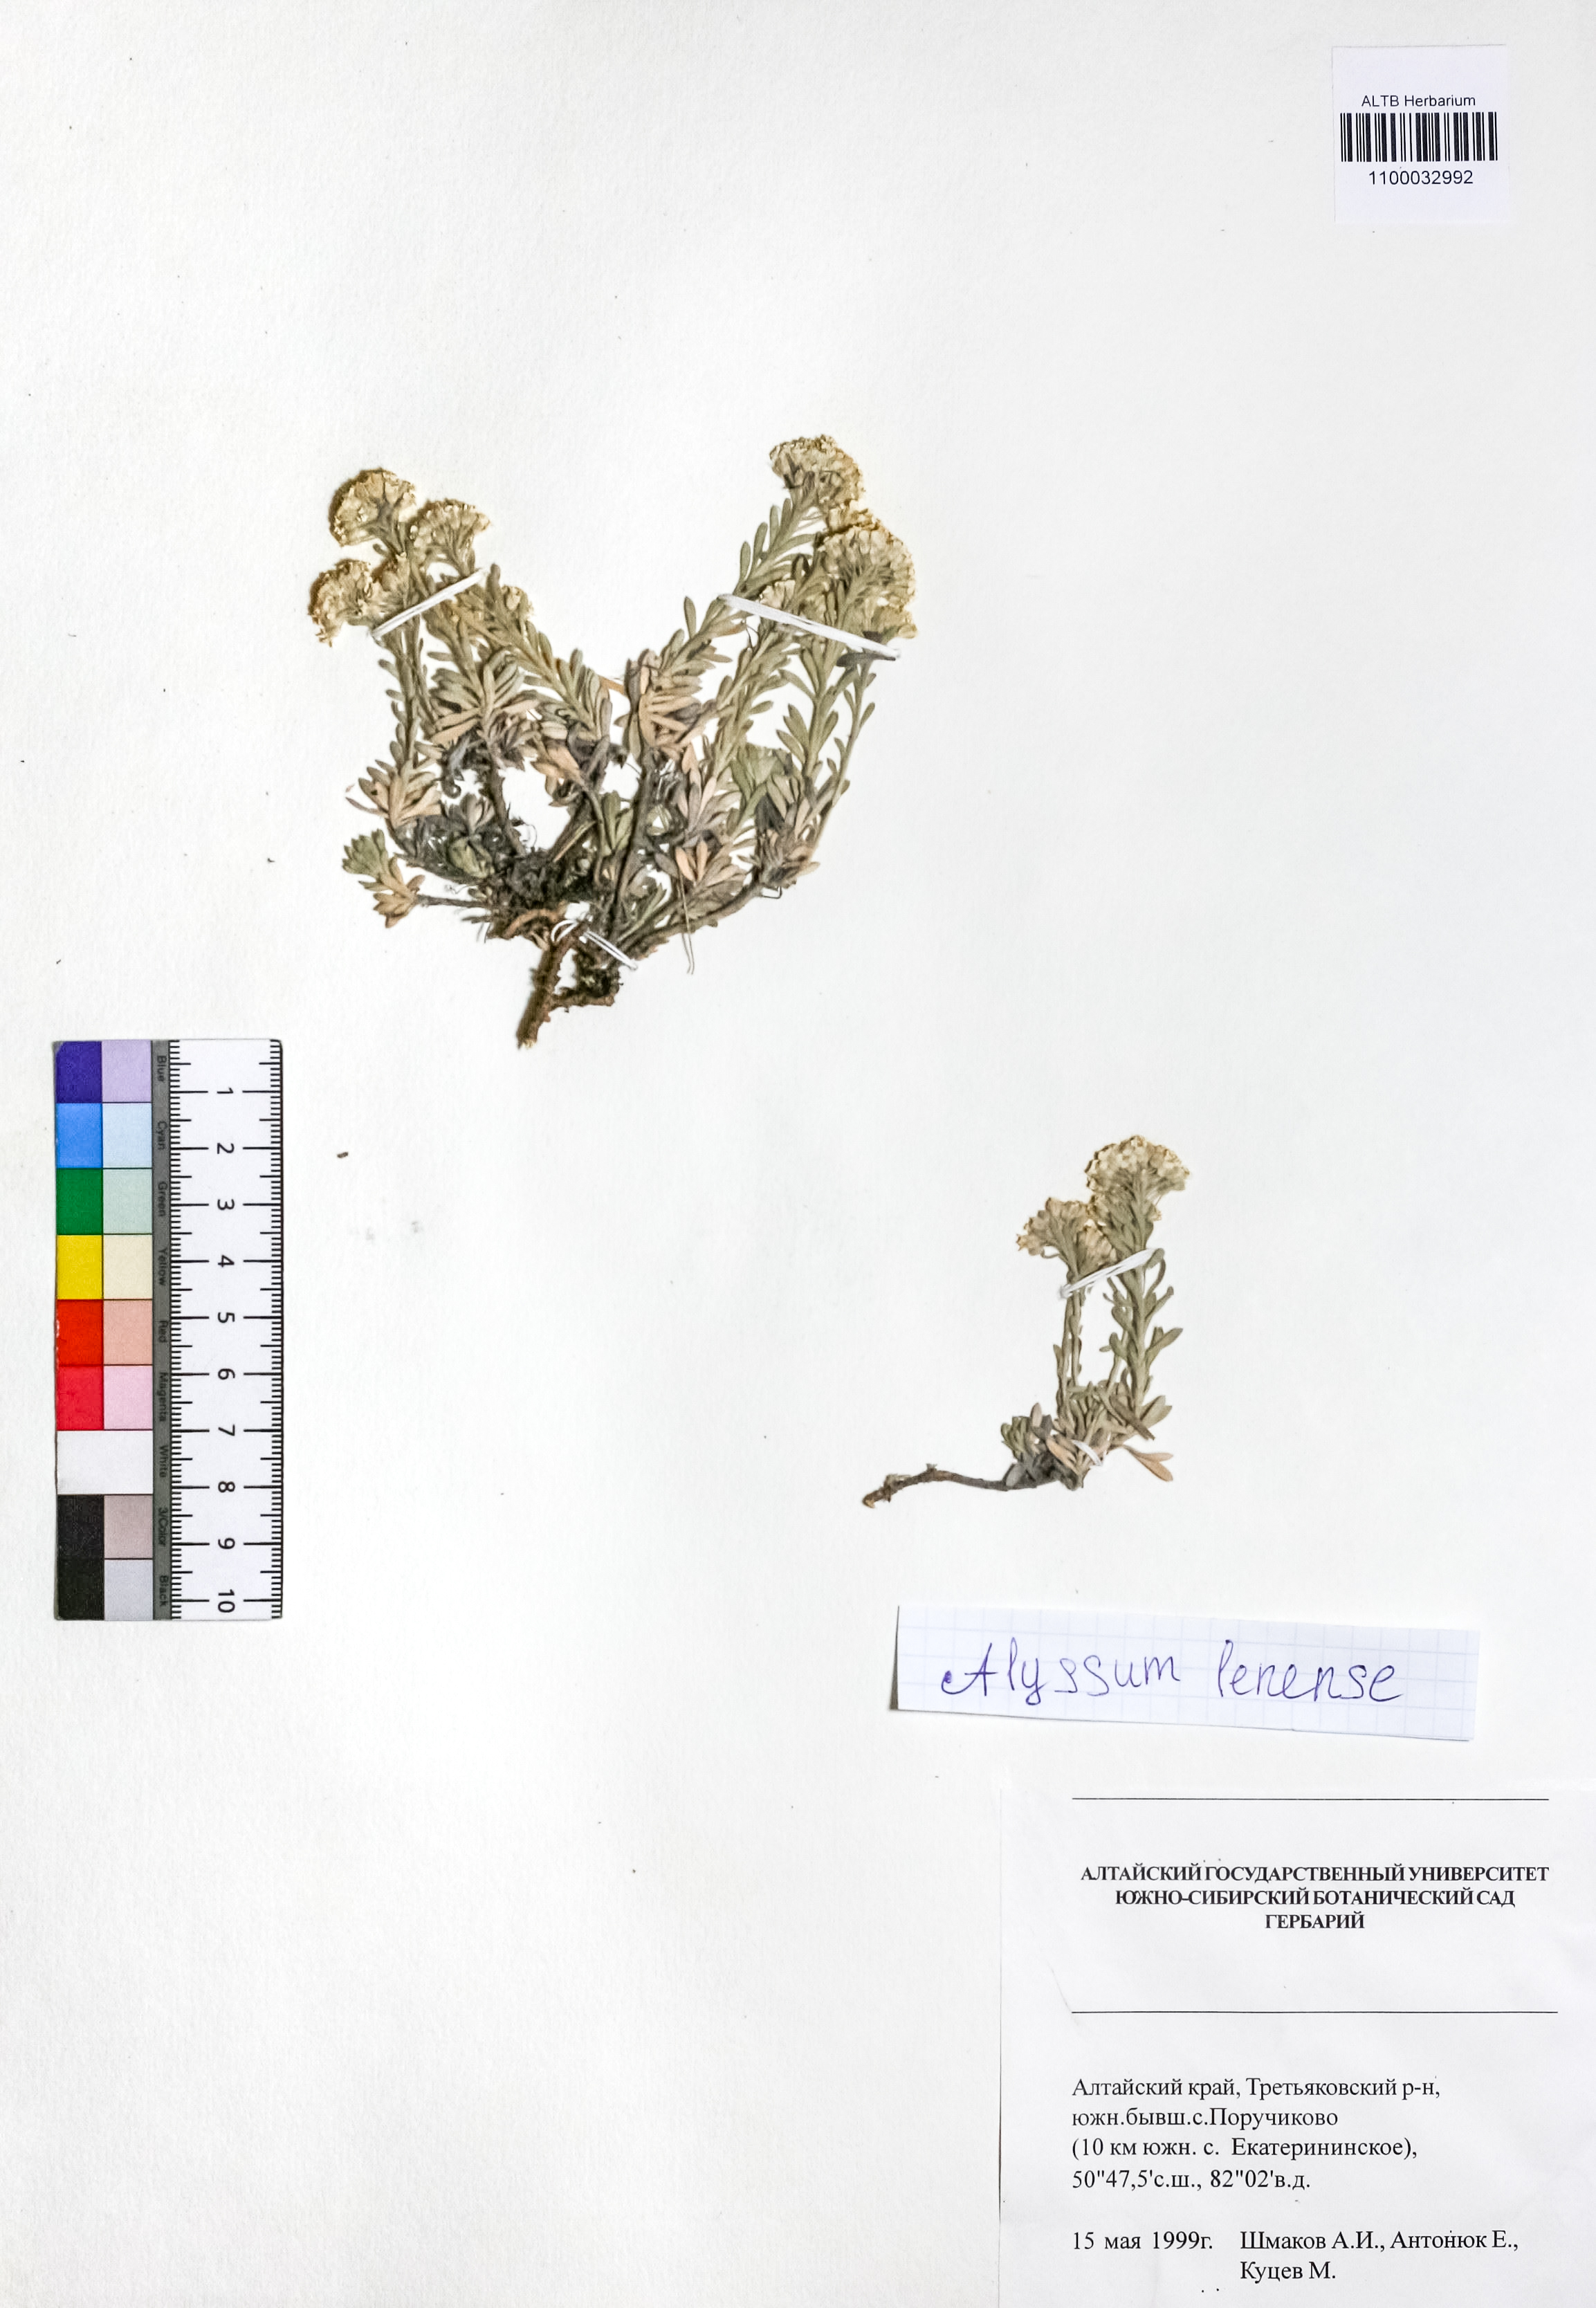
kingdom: Plantae
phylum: Tracheophyta
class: Magnoliopsida
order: Brassicales
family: Brassicaceae
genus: Alyssum
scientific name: Alyssum lenense
